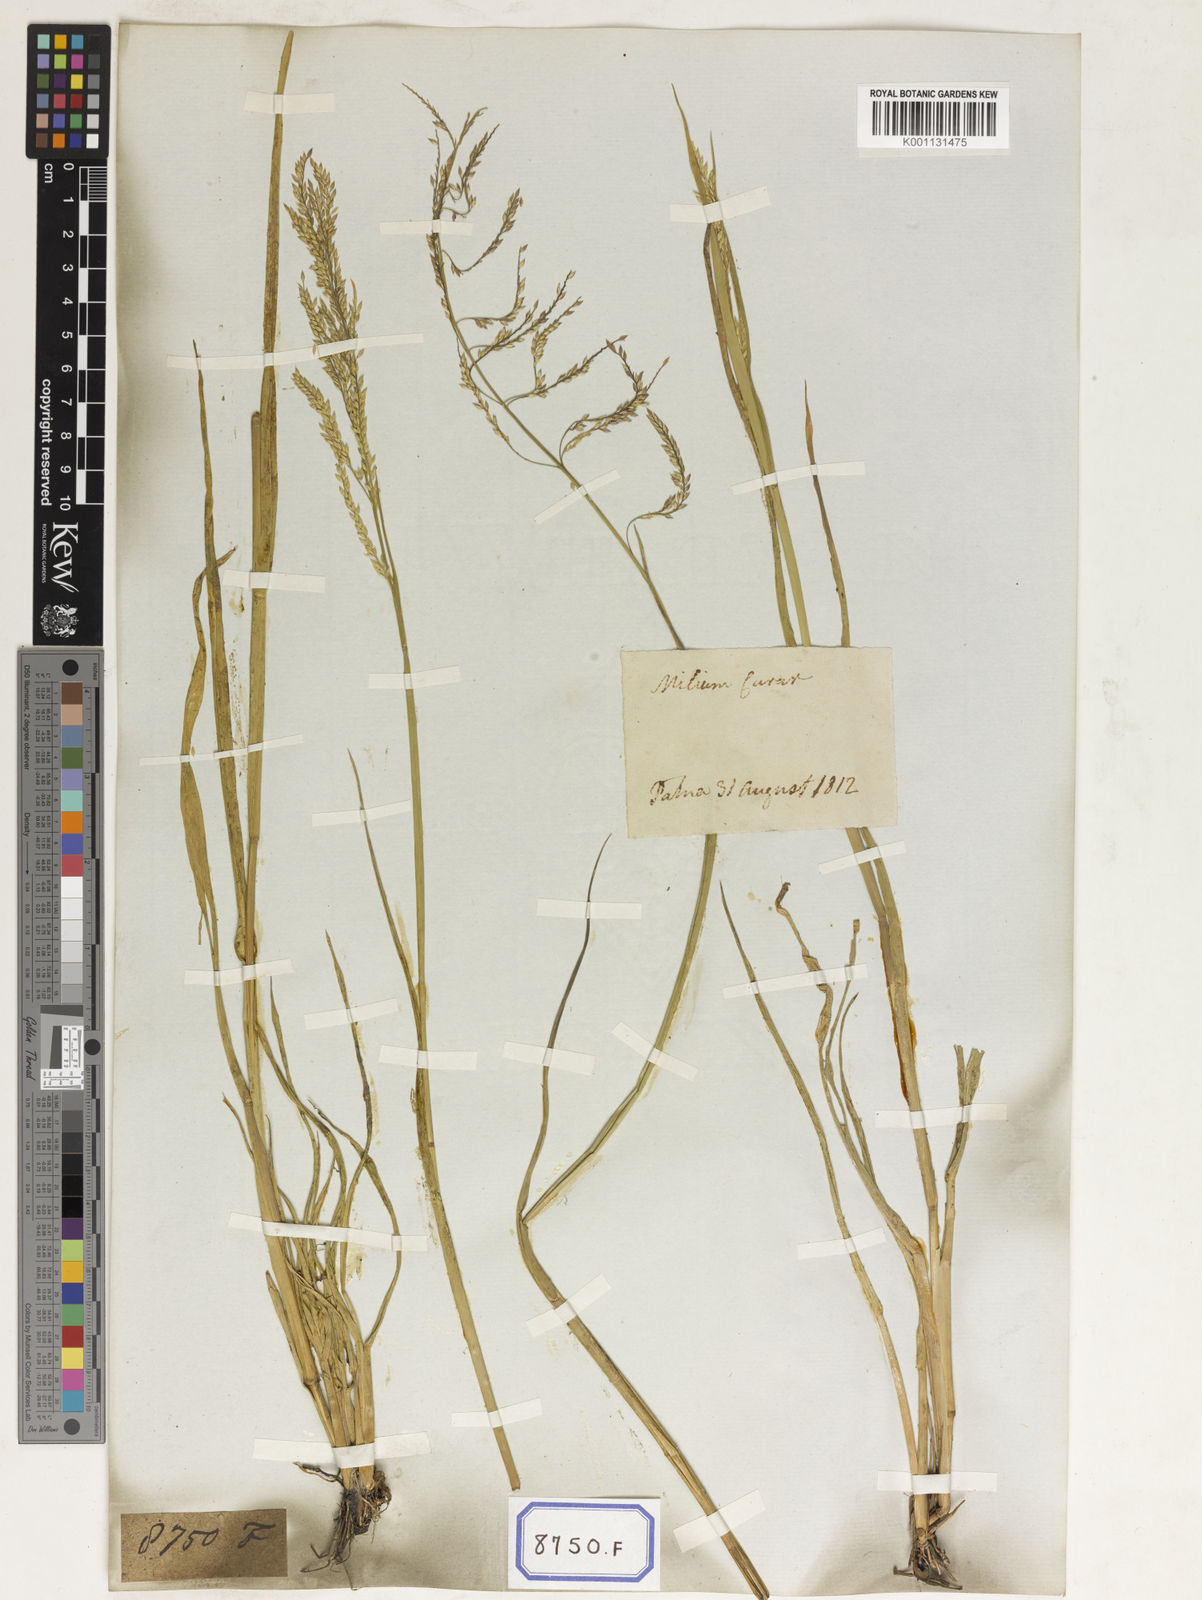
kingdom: Plantae
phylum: Tracheophyta
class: Liliopsida
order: Poales
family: Poaceae
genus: Eriochloa
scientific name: Eriochloa procera
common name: Spring grass
